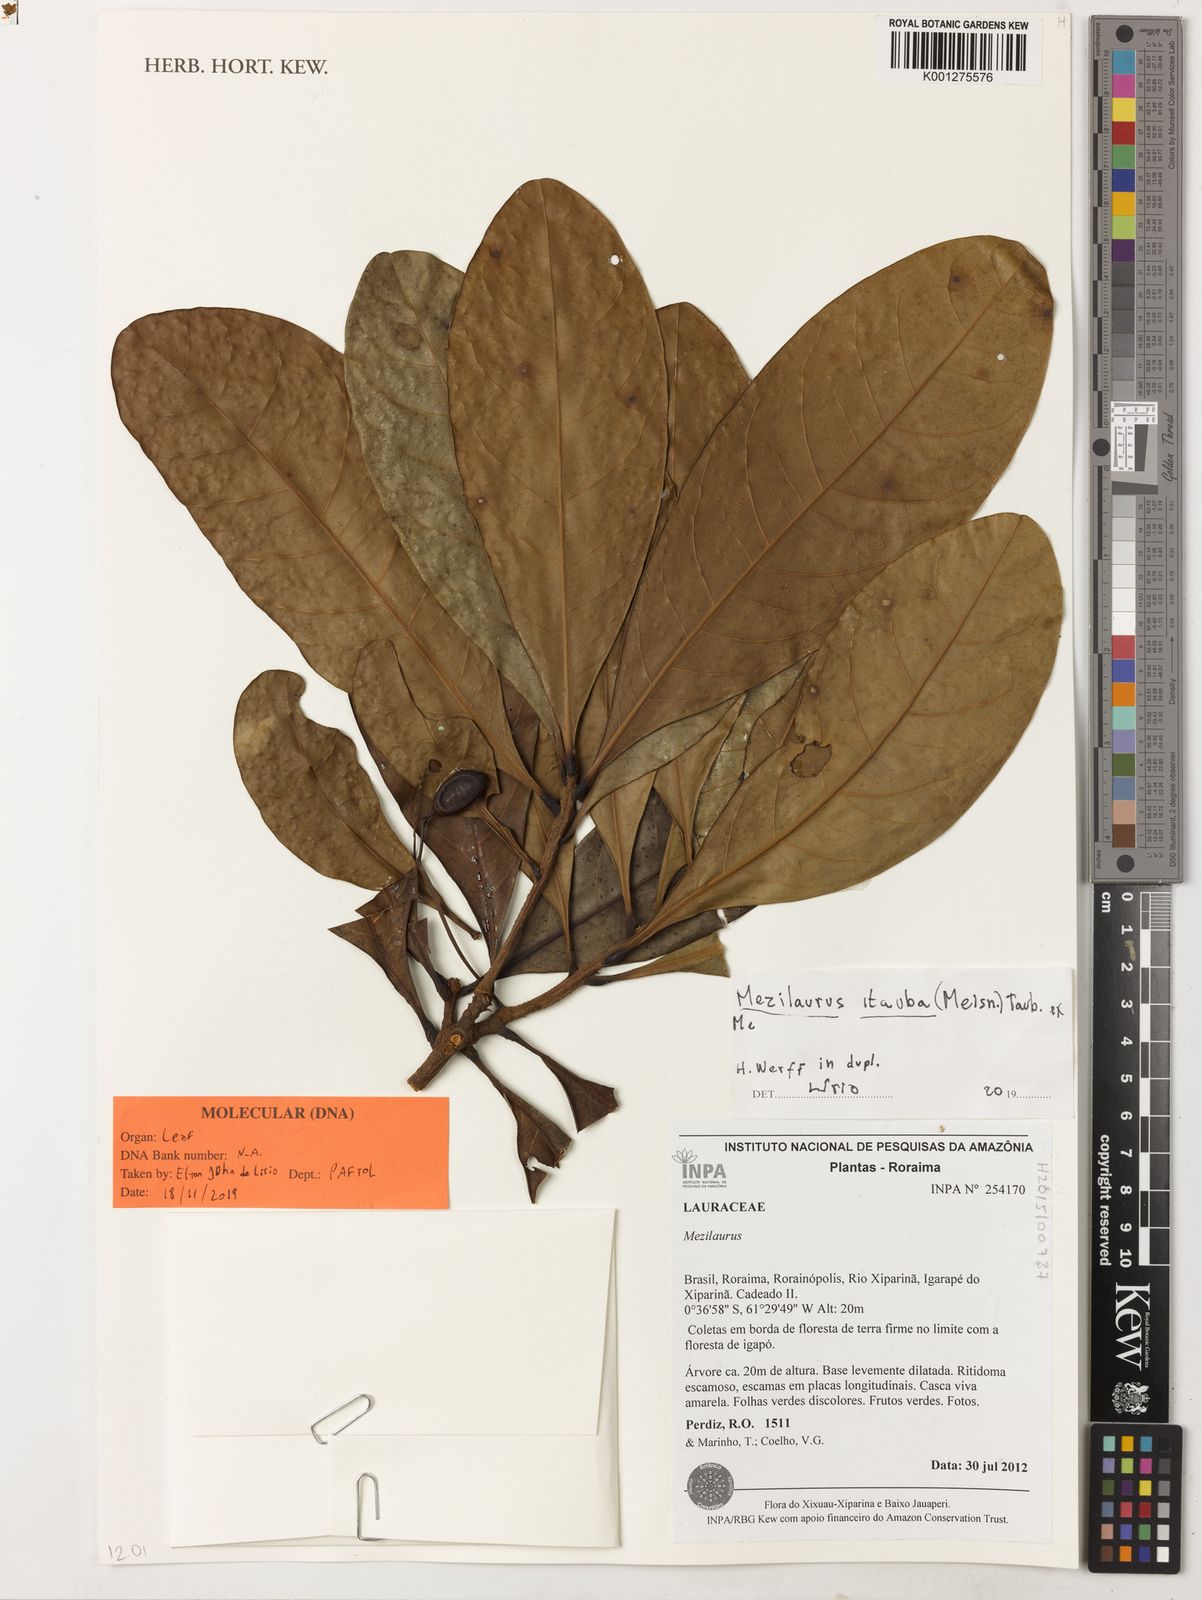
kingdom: Plantae
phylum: Tracheophyta
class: Magnoliopsida
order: Laurales
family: Lauraceae
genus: Mezilaurus
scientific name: Mezilaurus ita-uba
